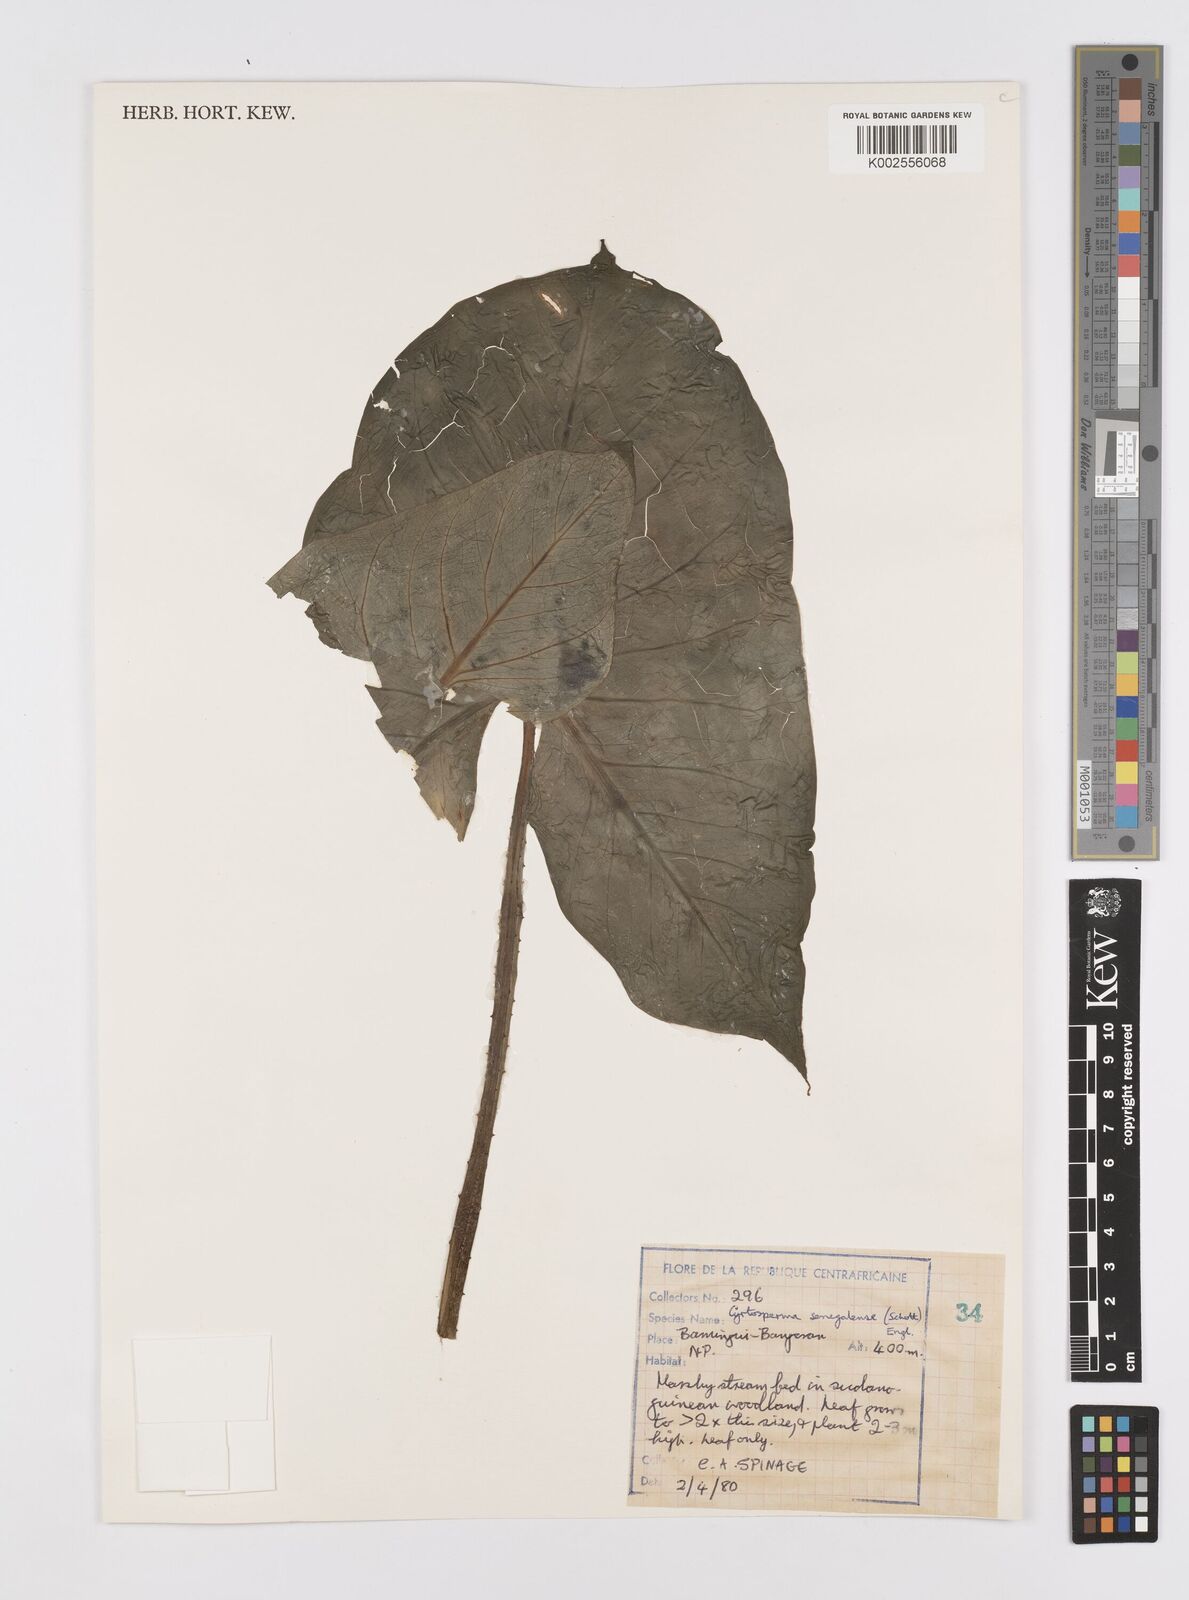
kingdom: Plantae
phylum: Tracheophyta
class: Liliopsida
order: Alismatales
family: Araceae
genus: Lasimorpha
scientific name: Lasimorpha senegalensis
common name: Swamp arum
